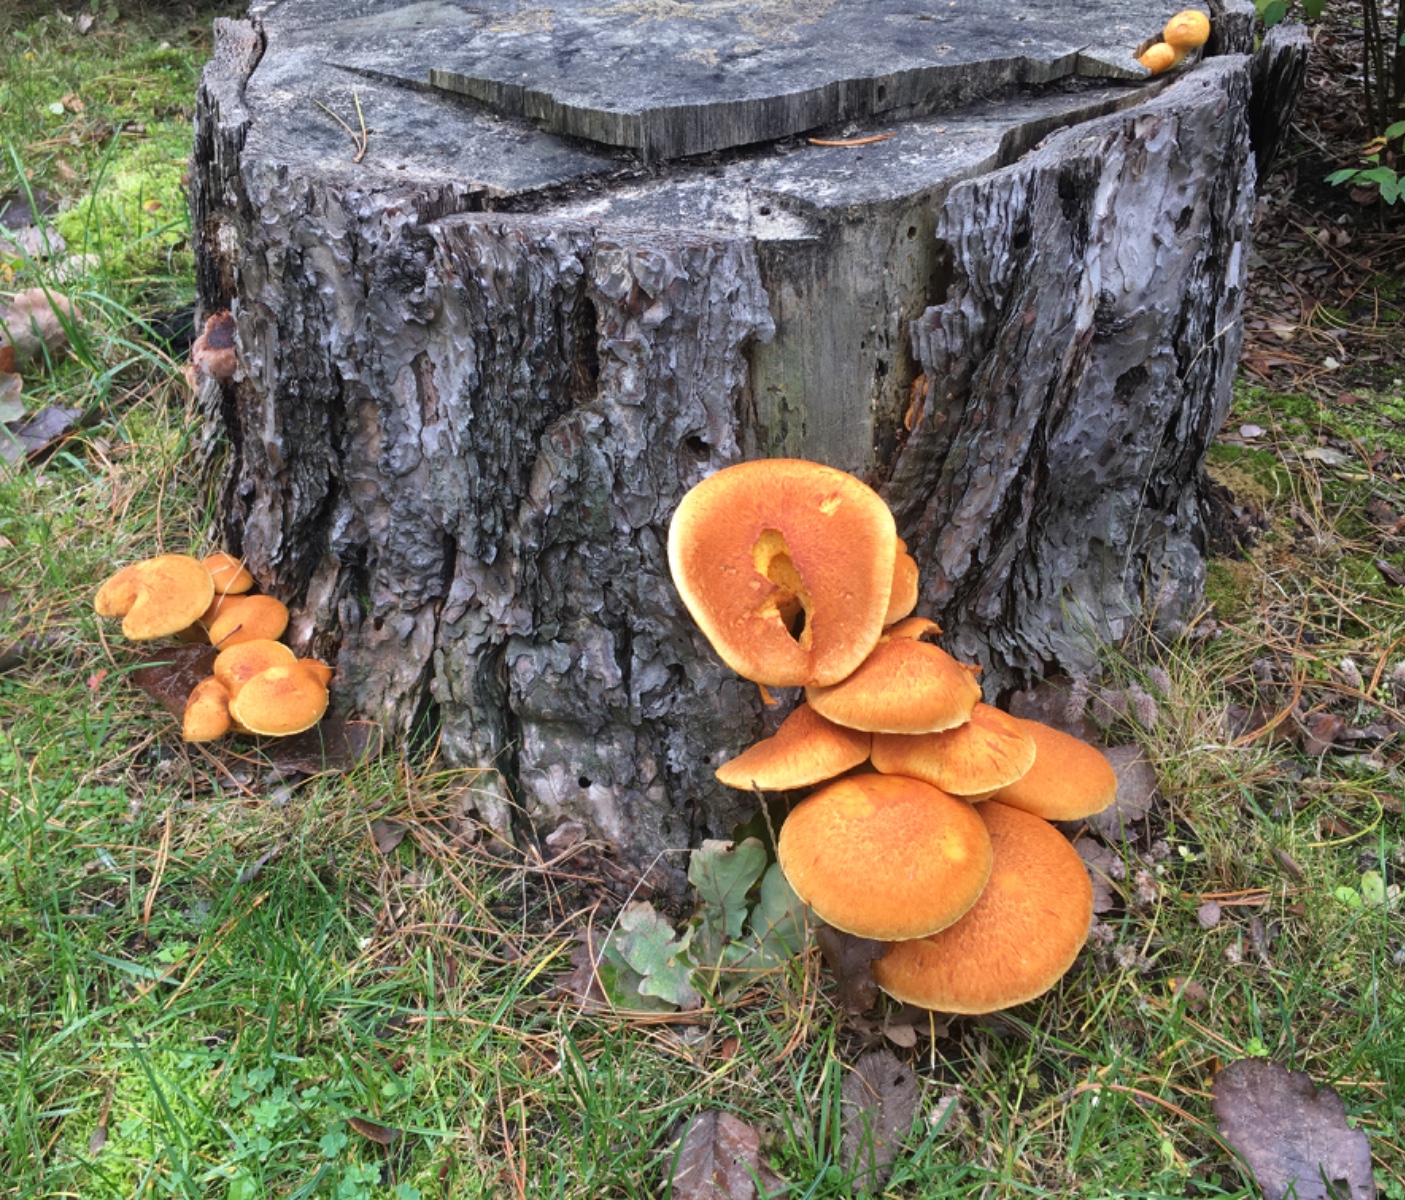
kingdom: Fungi
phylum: Basidiomycota
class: Agaricomycetes
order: Agaricales
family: Hymenogastraceae
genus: Gymnopilus
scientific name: Gymnopilus spectabilis
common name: fibret flammehat
